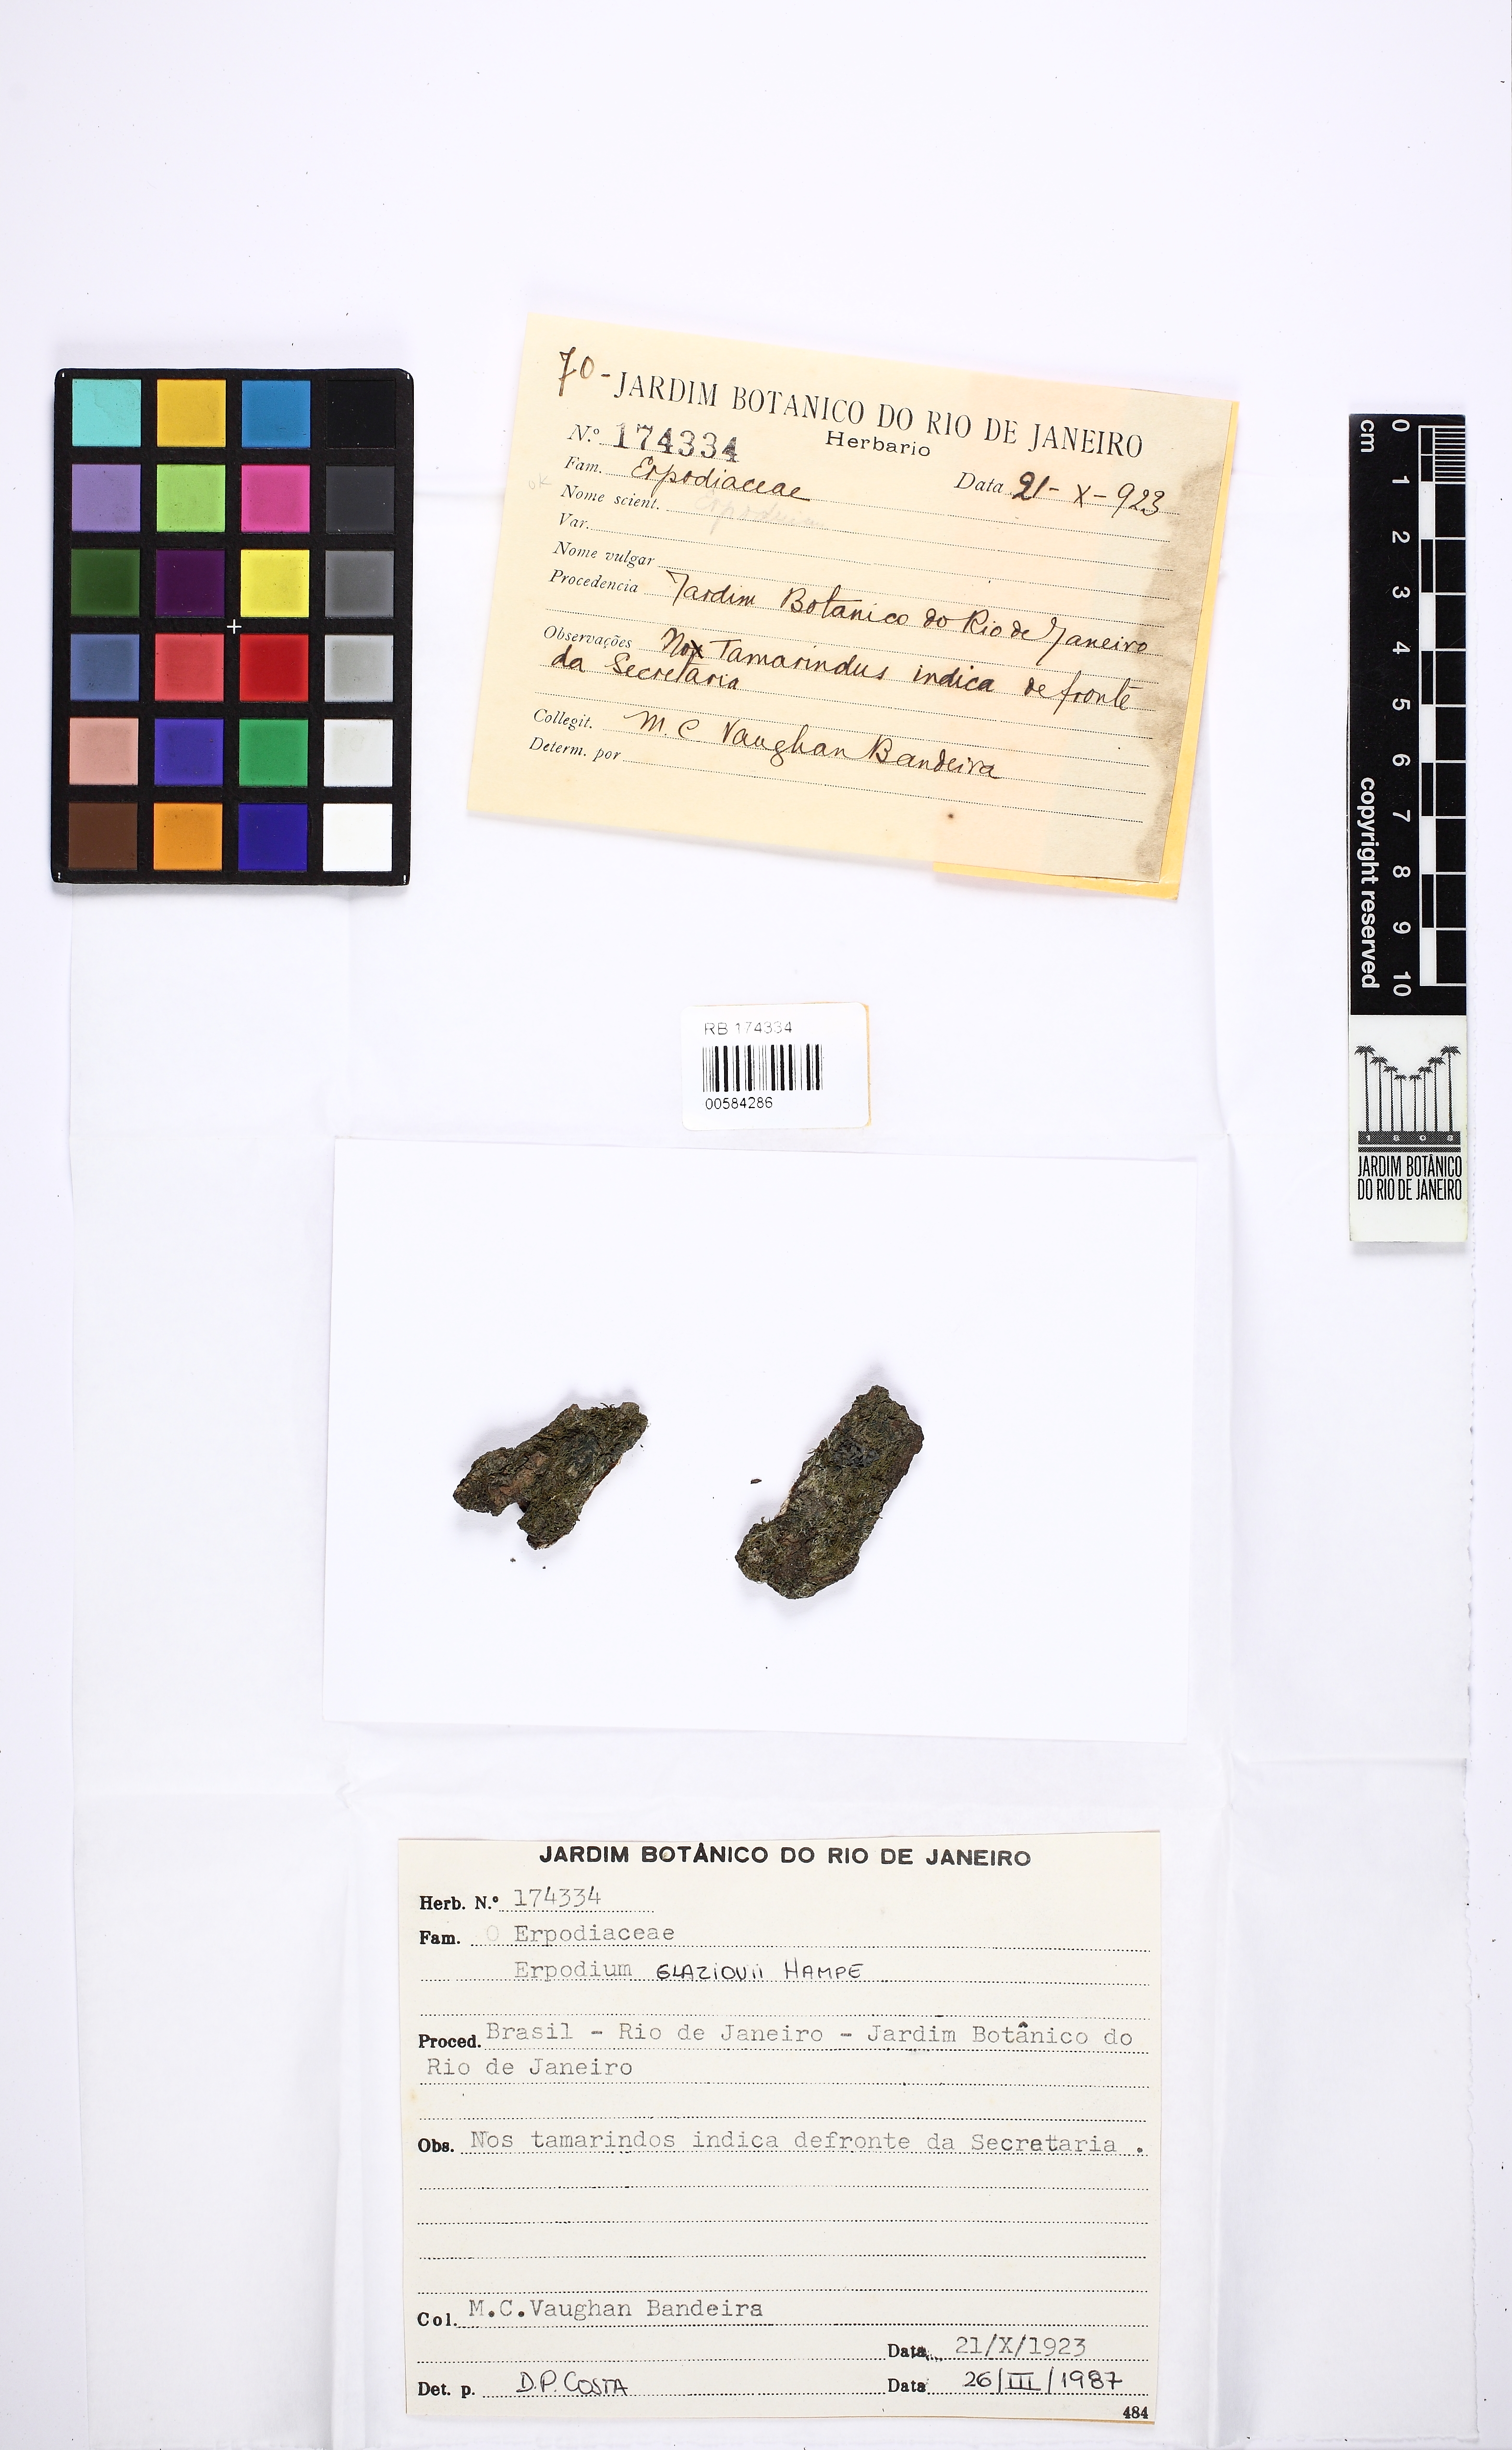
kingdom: Plantae
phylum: Bryophyta
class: Bryopsida
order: Dicranales
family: Erpodiaceae
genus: Venturiella
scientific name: Venturiella glaziovii
